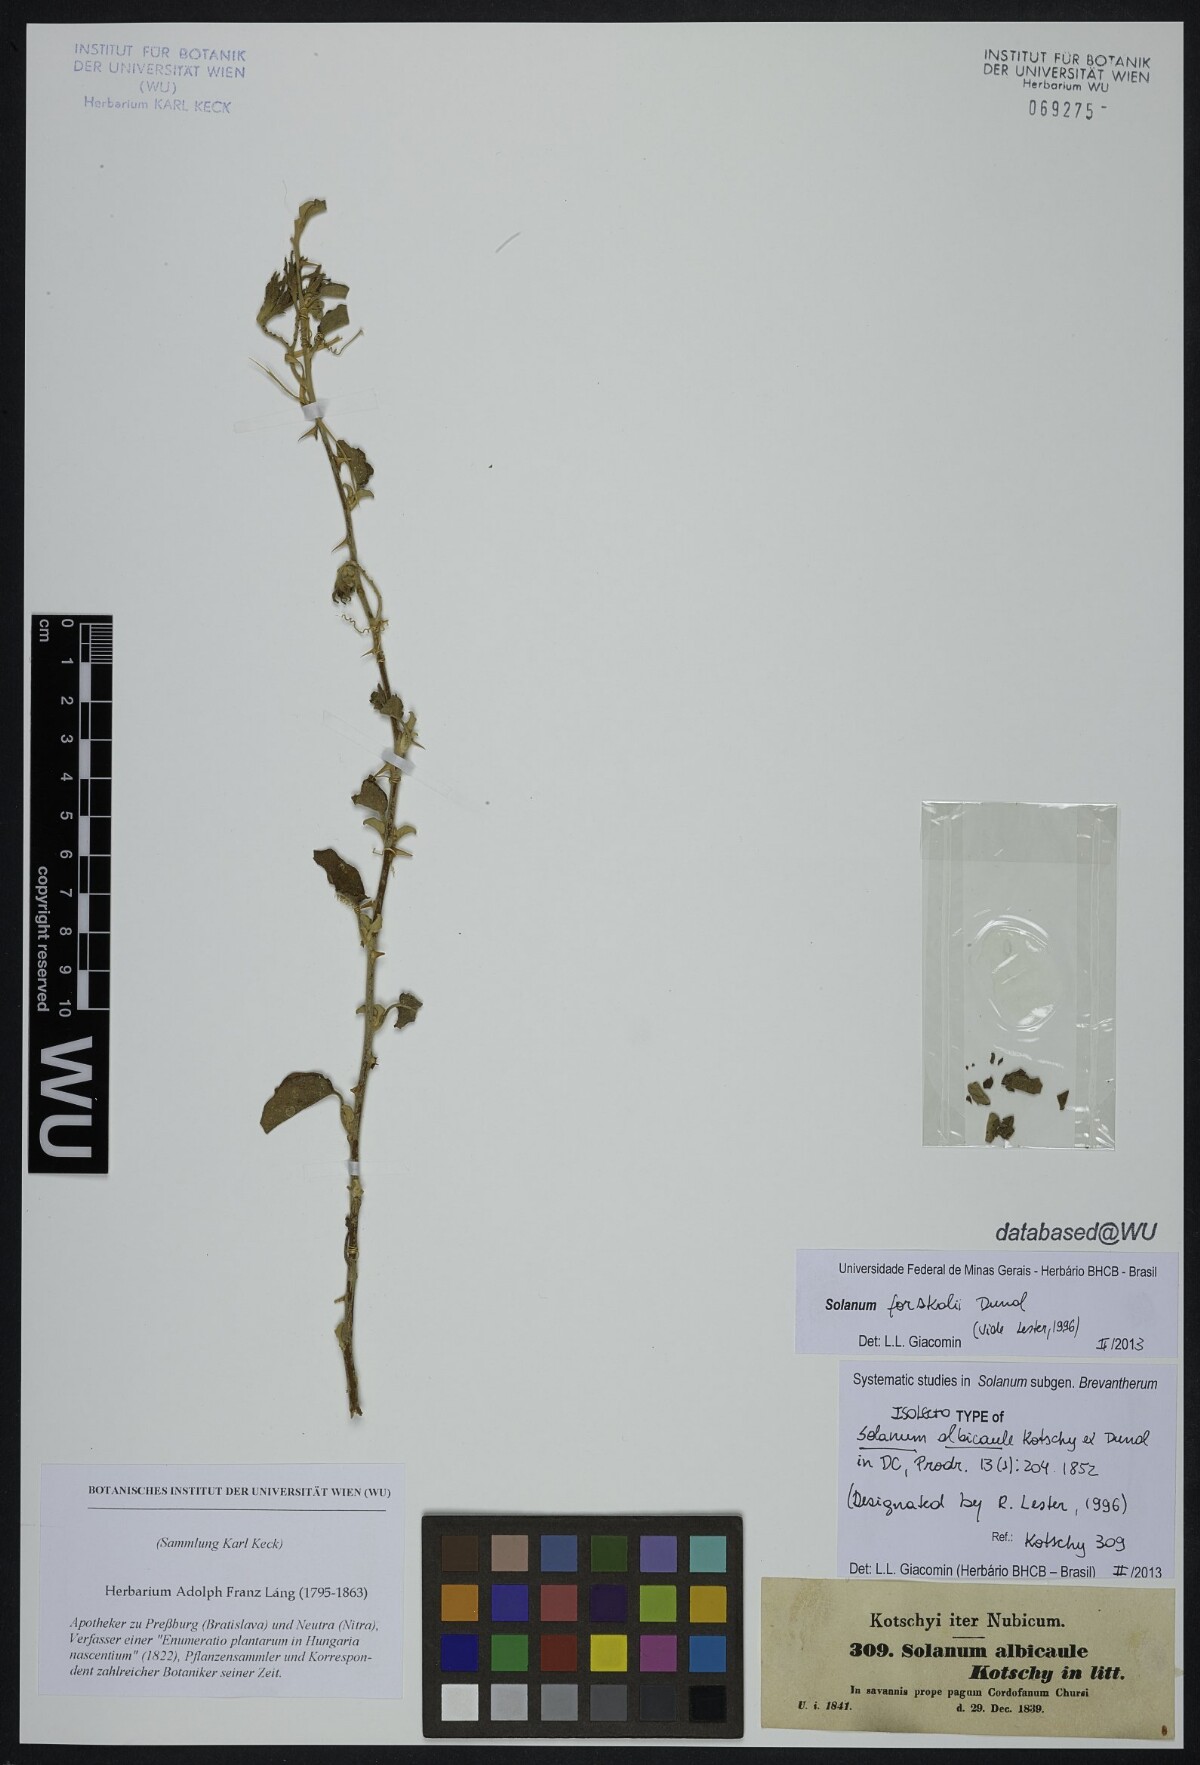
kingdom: Plantae
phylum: Tracheophyta
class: Magnoliopsida
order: Solanales
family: Solanaceae
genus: Solanum
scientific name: Solanum forsskaolii
